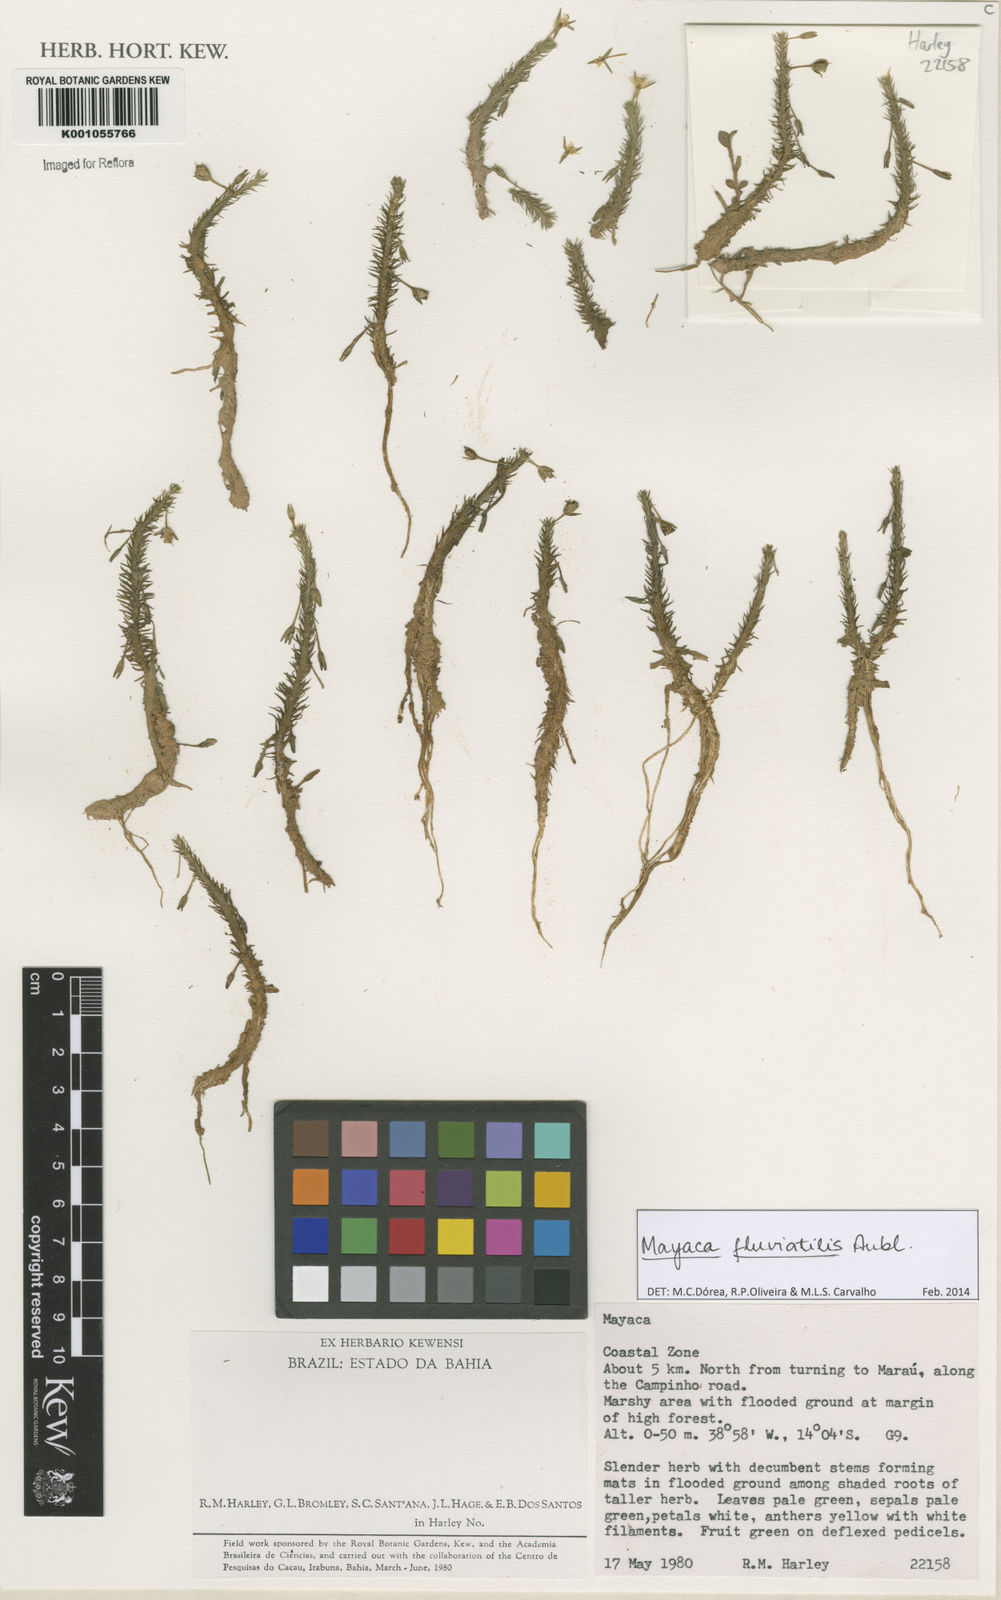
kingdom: Plantae
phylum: Tracheophyta
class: Liliopsida
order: Poales
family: Mayacaceae
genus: Mayaca
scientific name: Mayaca
